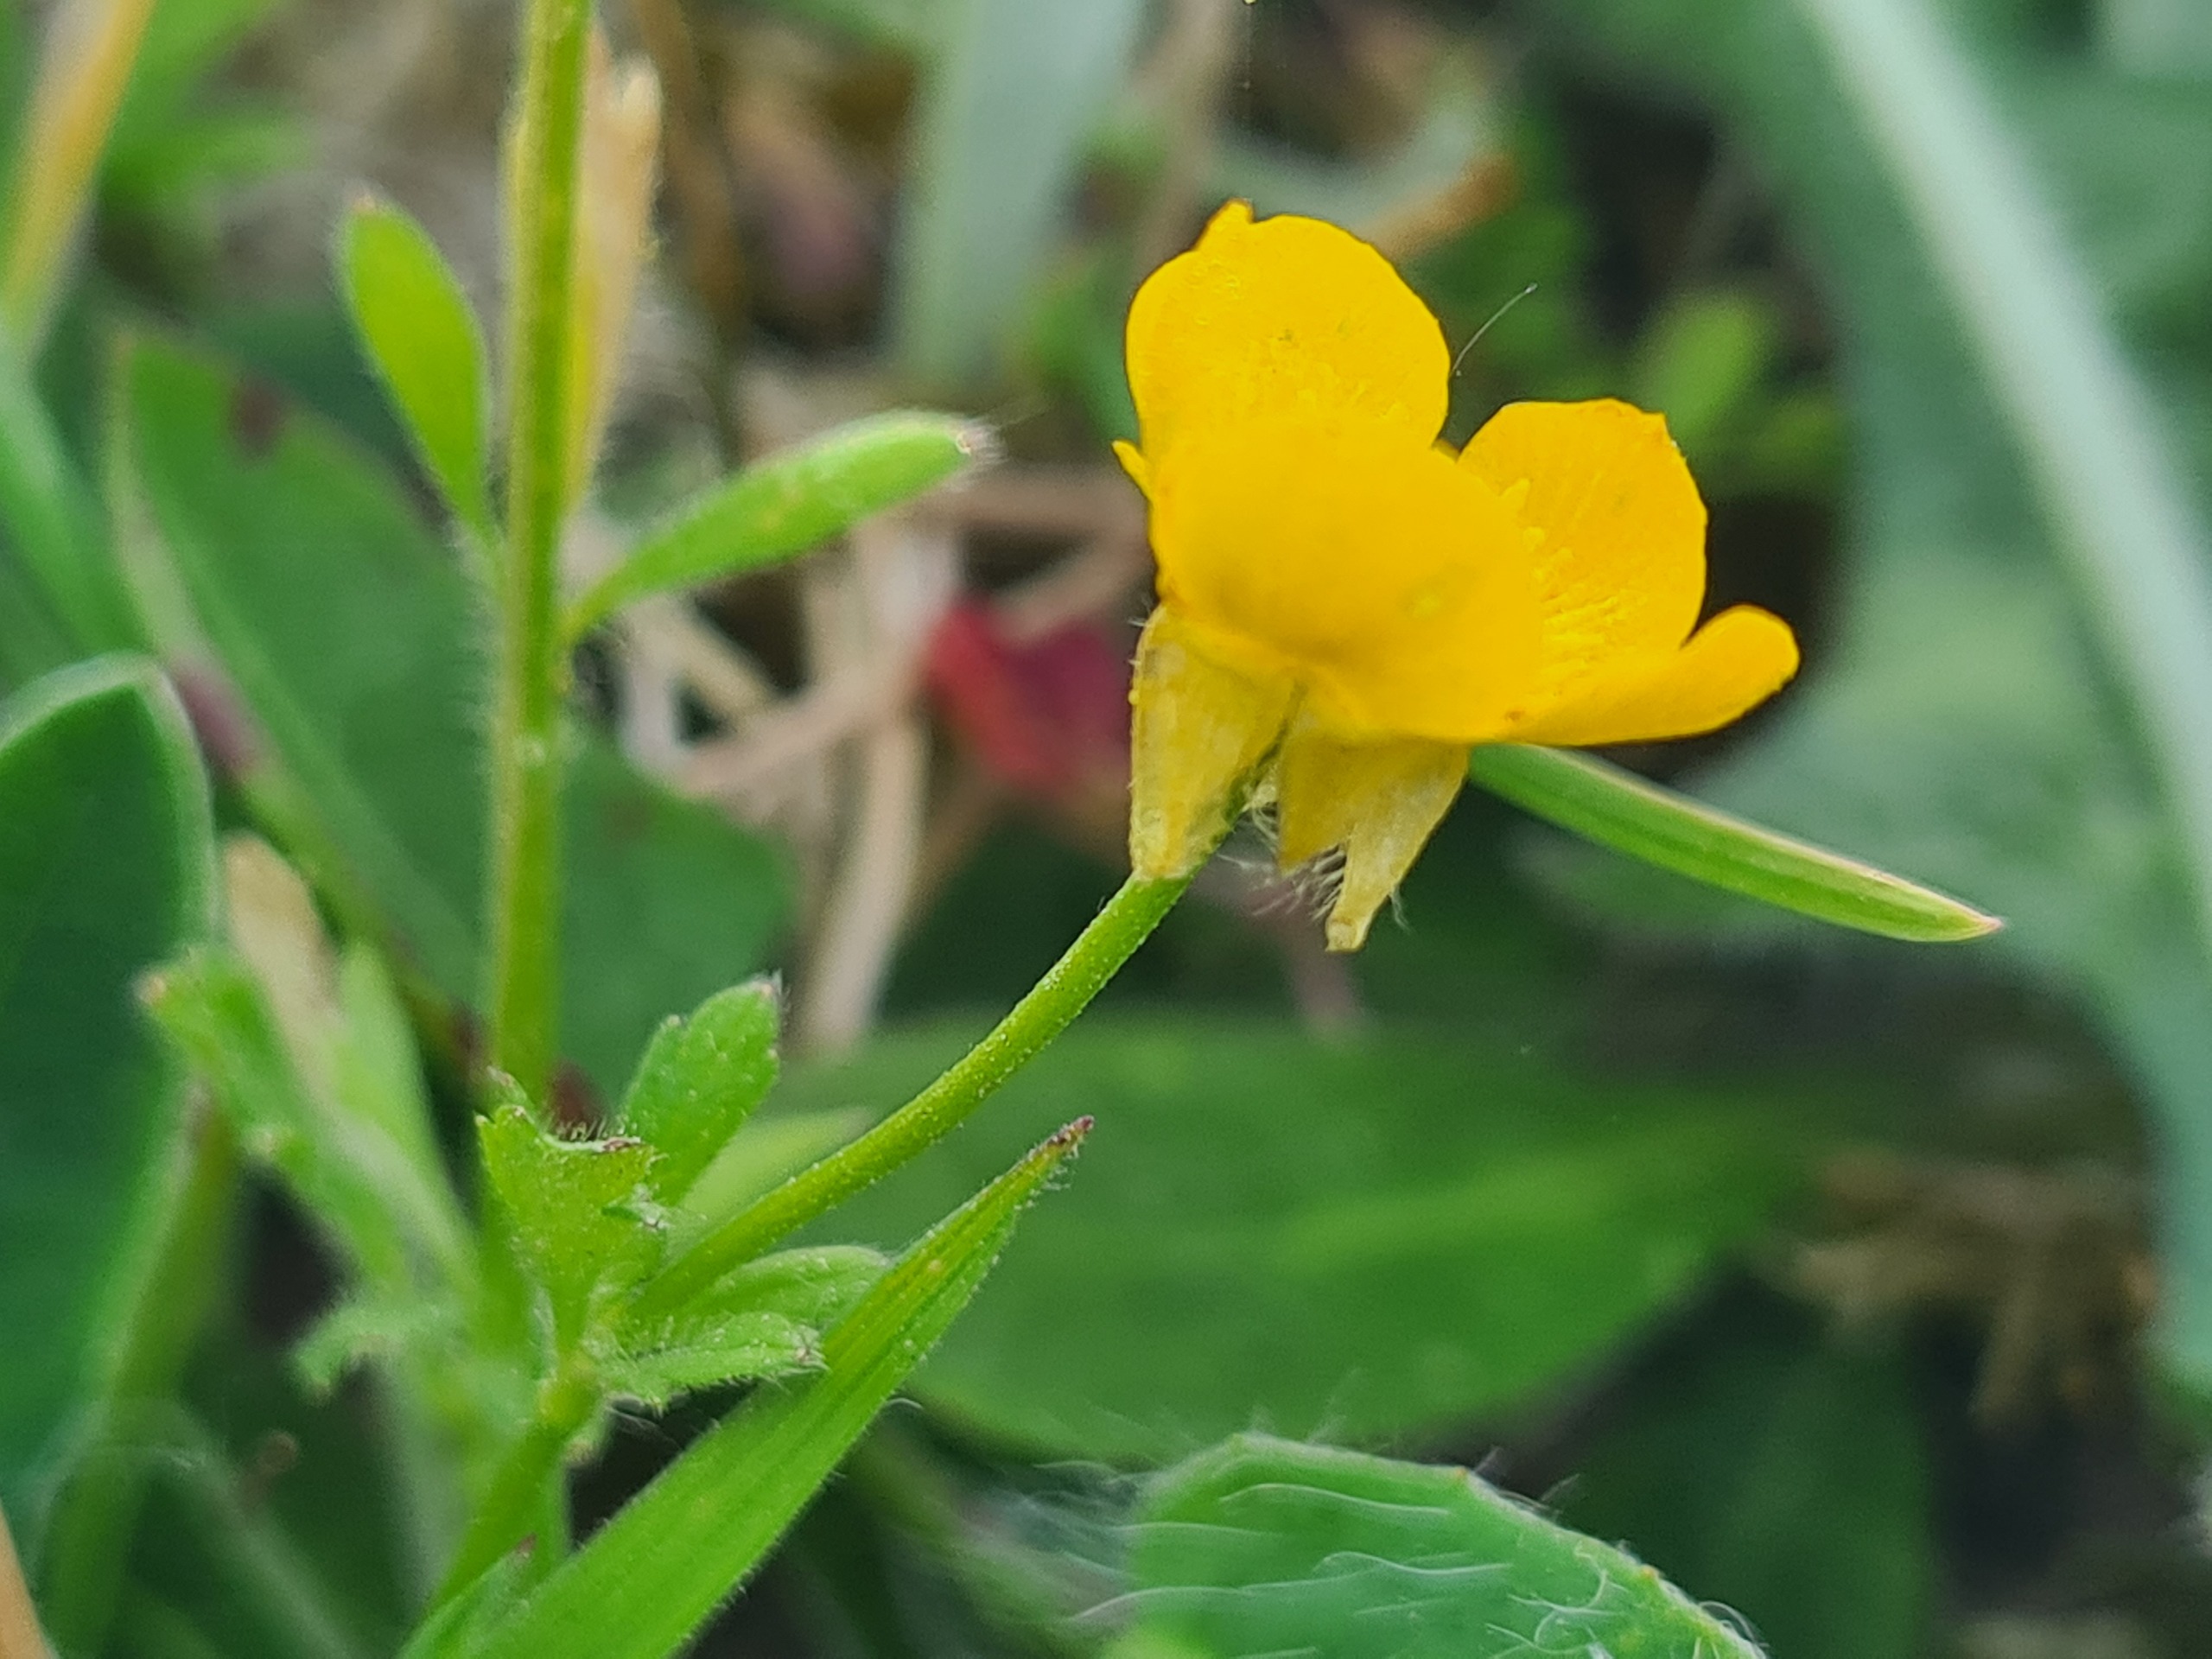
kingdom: Plantae
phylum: Tracheophyta
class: Magnoliopsida
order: Ranunculales
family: Ranunculaceae
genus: Ranunculus
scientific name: Ranunculus bulbosus
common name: Knold-ranunkel
